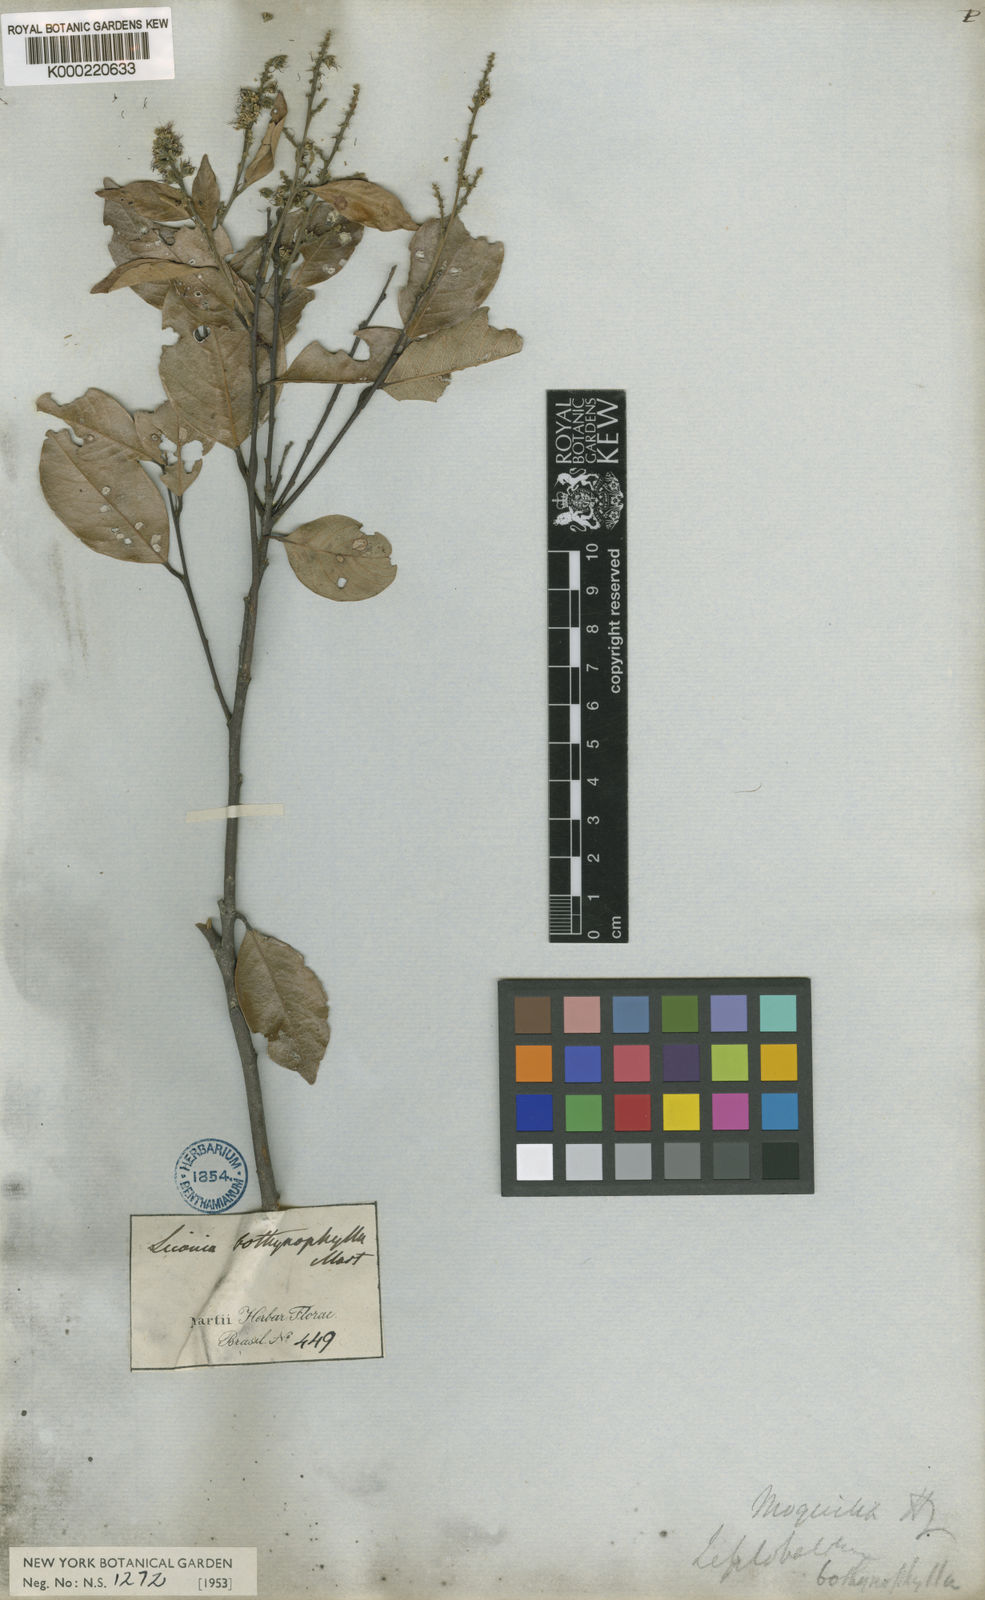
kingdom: Plantae
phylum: Tracheophyta
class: Magnoliopsida
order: Malpighiales
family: Chrysobalanaceae
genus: Leptobalanus
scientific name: Leptobalanus octandrus
